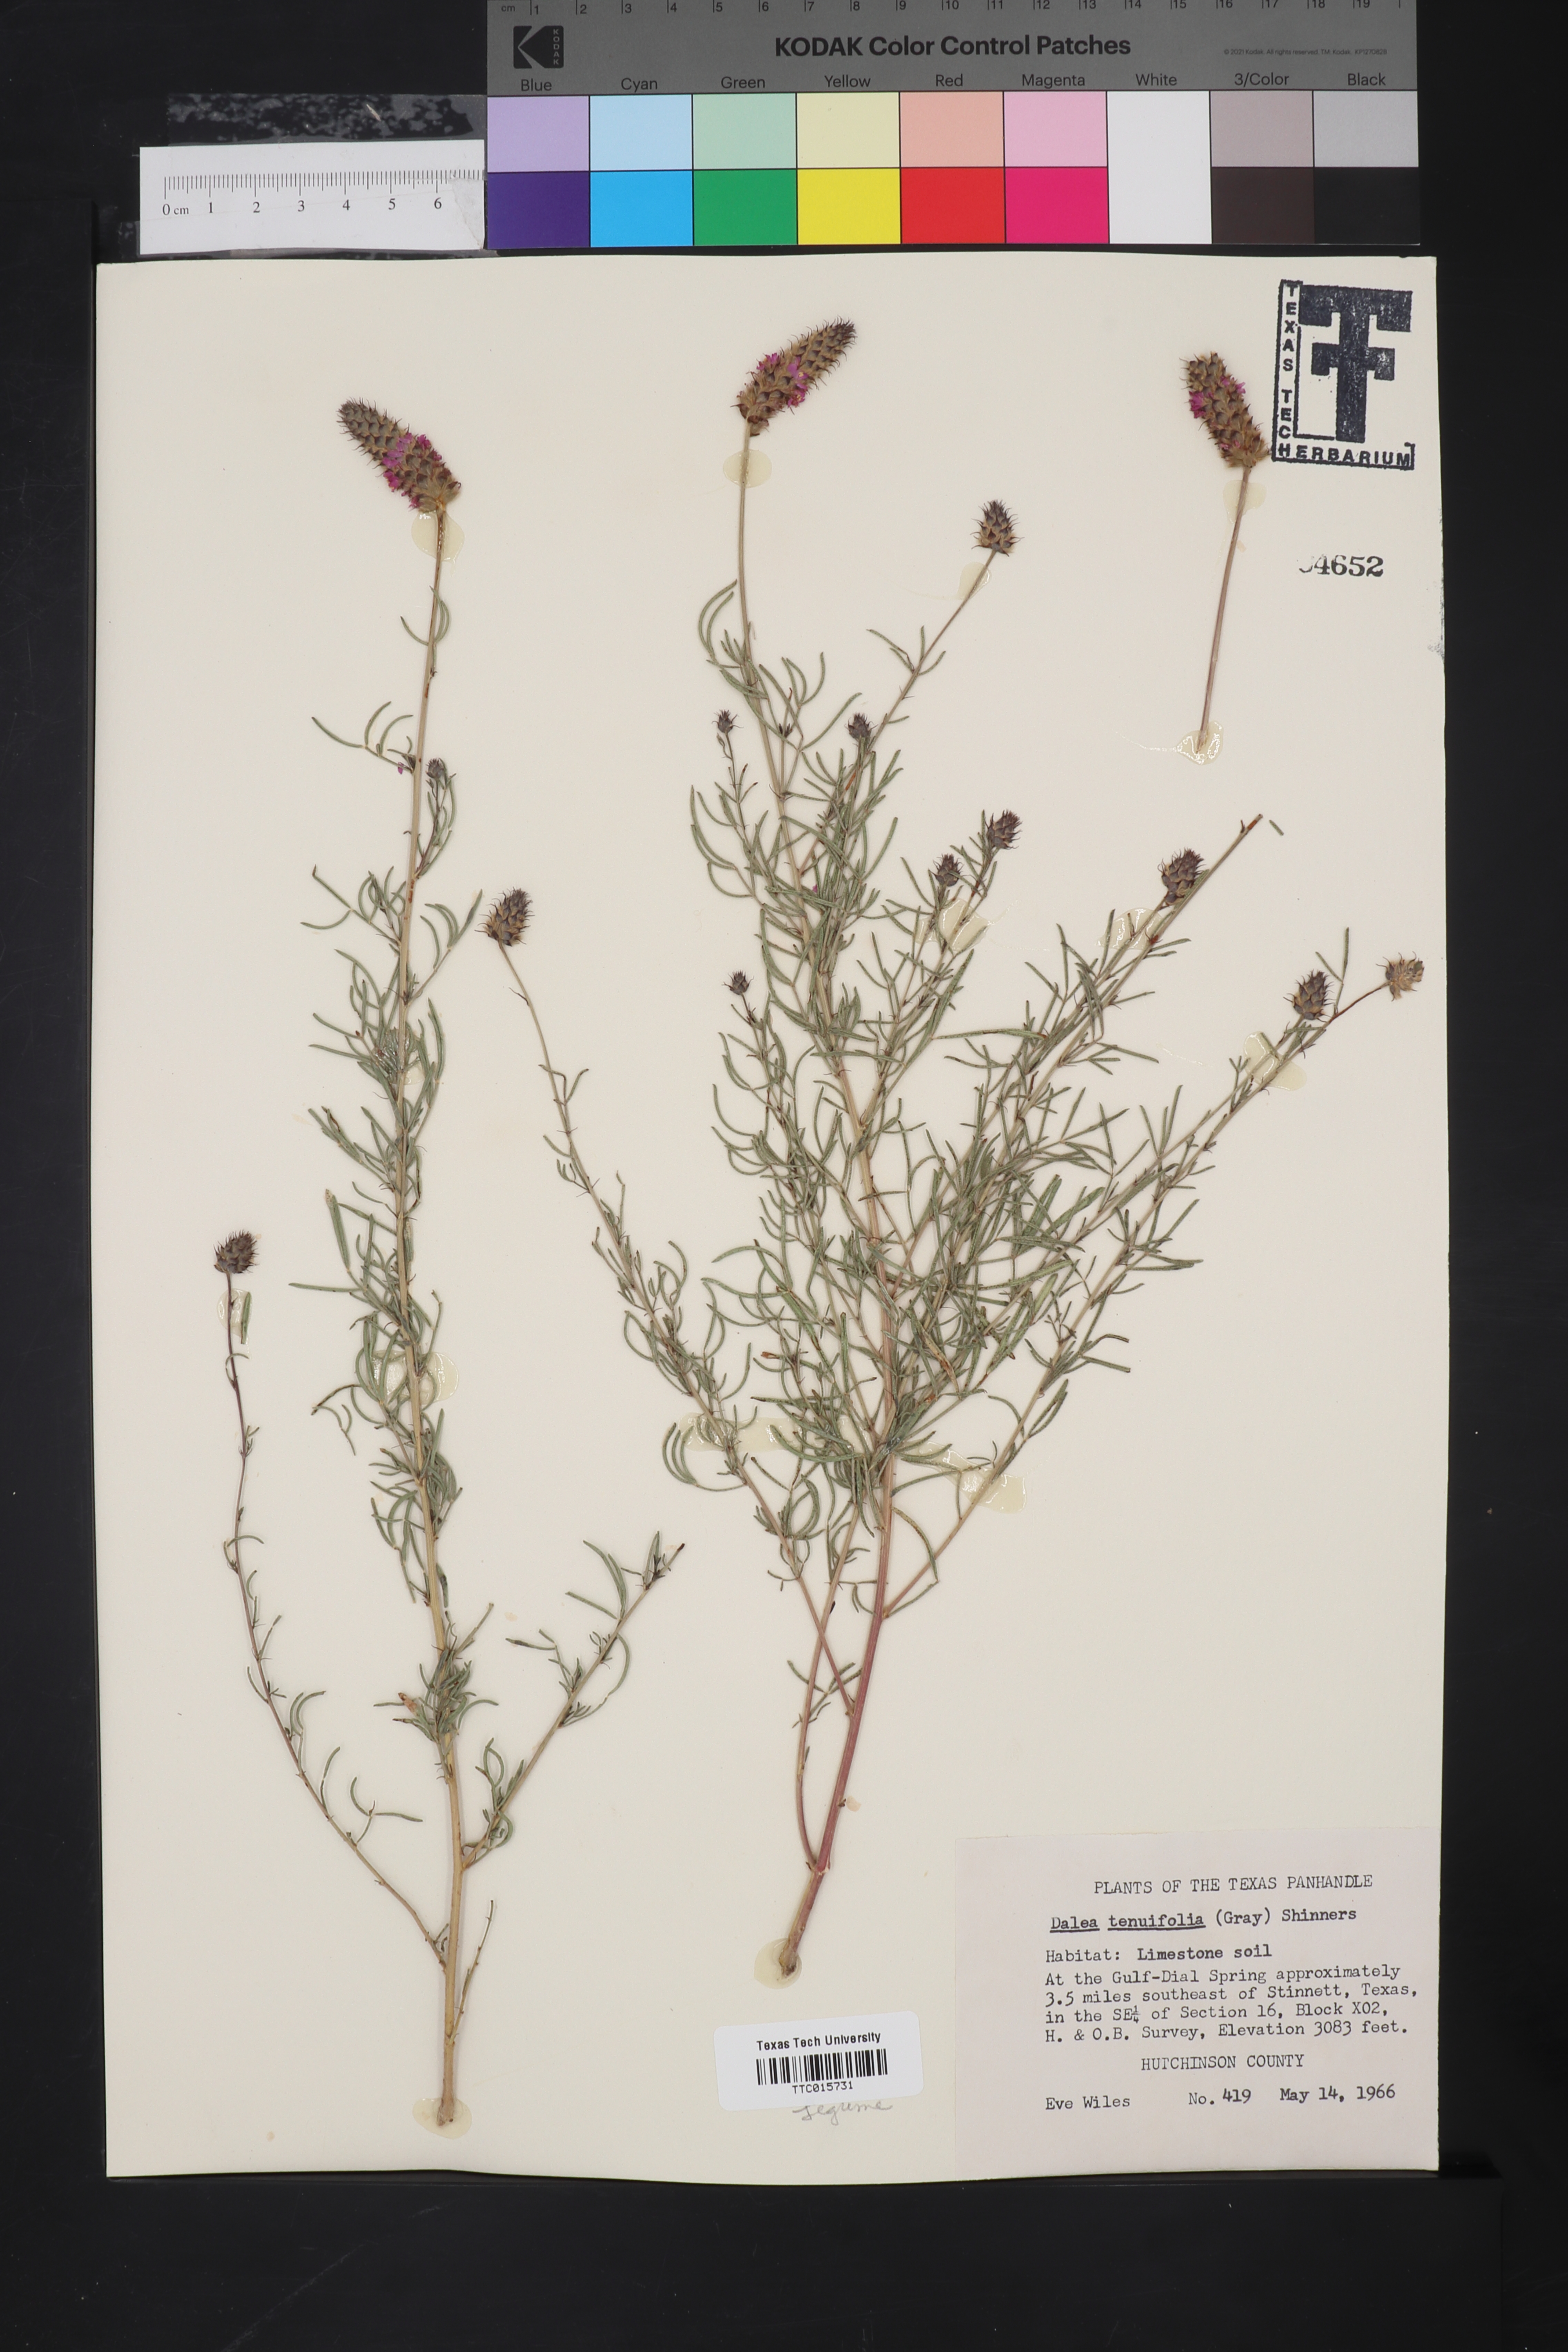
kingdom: Plantae
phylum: Tracheophyta
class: Magnoliopsida
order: Fabales
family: Fabaceae
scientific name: Fabaceae
